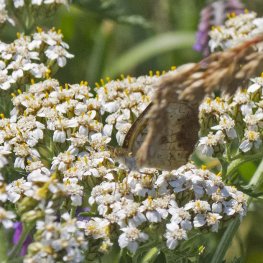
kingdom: Animalia
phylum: Arthropoda
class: Insecta
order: Lepidoptera
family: Nymphalidae
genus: Phyciodes
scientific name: Phyciodes tharos
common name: Northern Crescent
